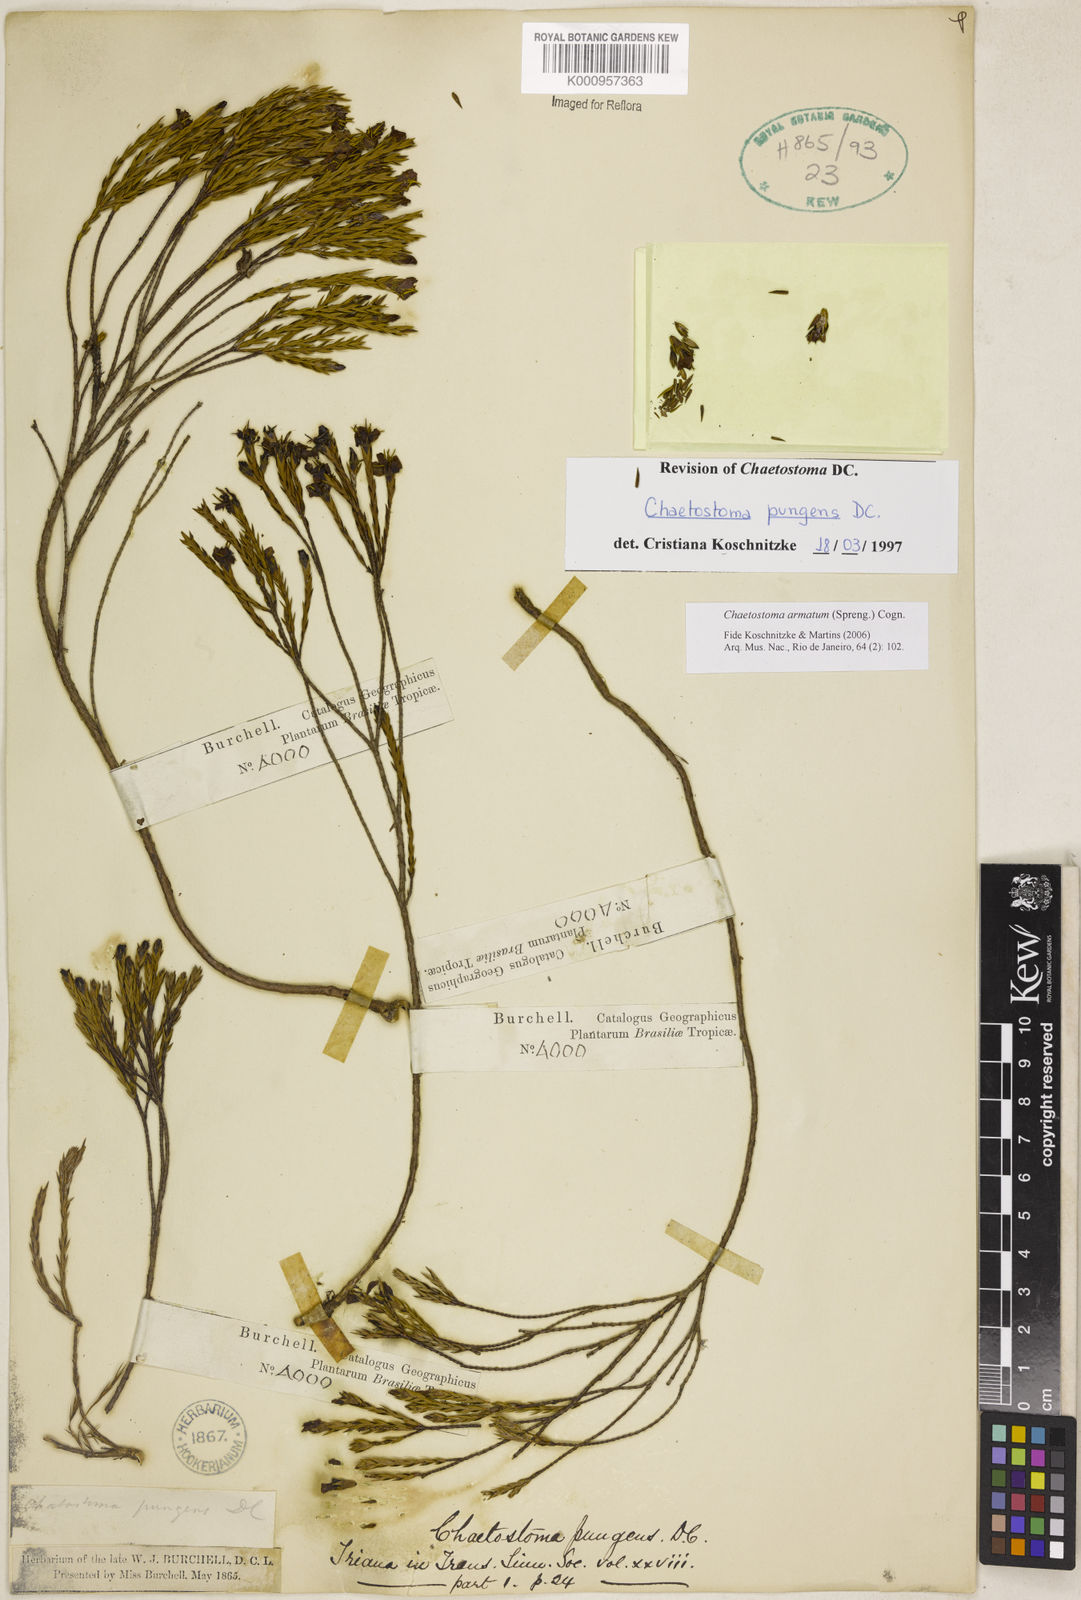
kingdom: Plantae
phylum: Tracheophyta
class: Magnoliopsida
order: Myrtales
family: Melastomataceae
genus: Microlicia
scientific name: Microlicia armata
